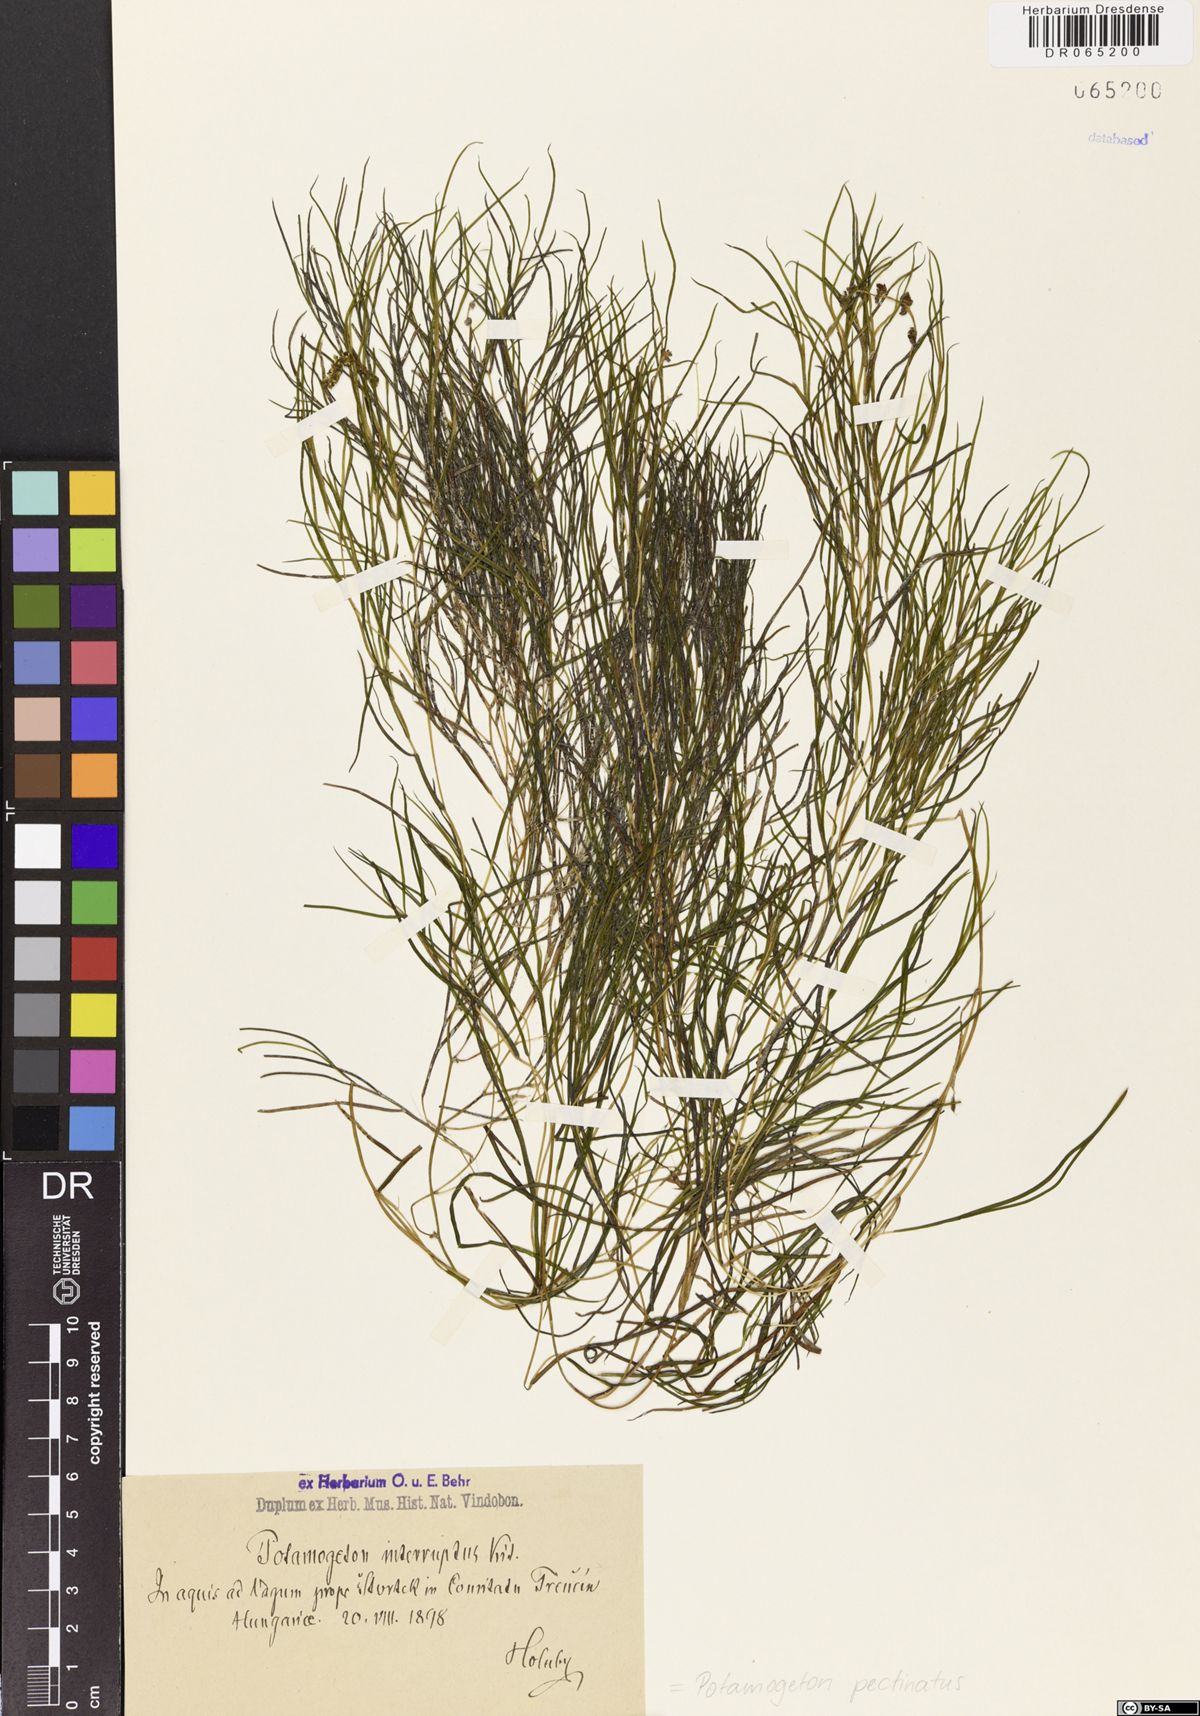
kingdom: Plantae
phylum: Tracheophyta
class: Liliopsida
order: Alismatales
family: Potamogetonaceae
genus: Stuckenia
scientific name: Stuckenia pectinata
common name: Sago pondweed
